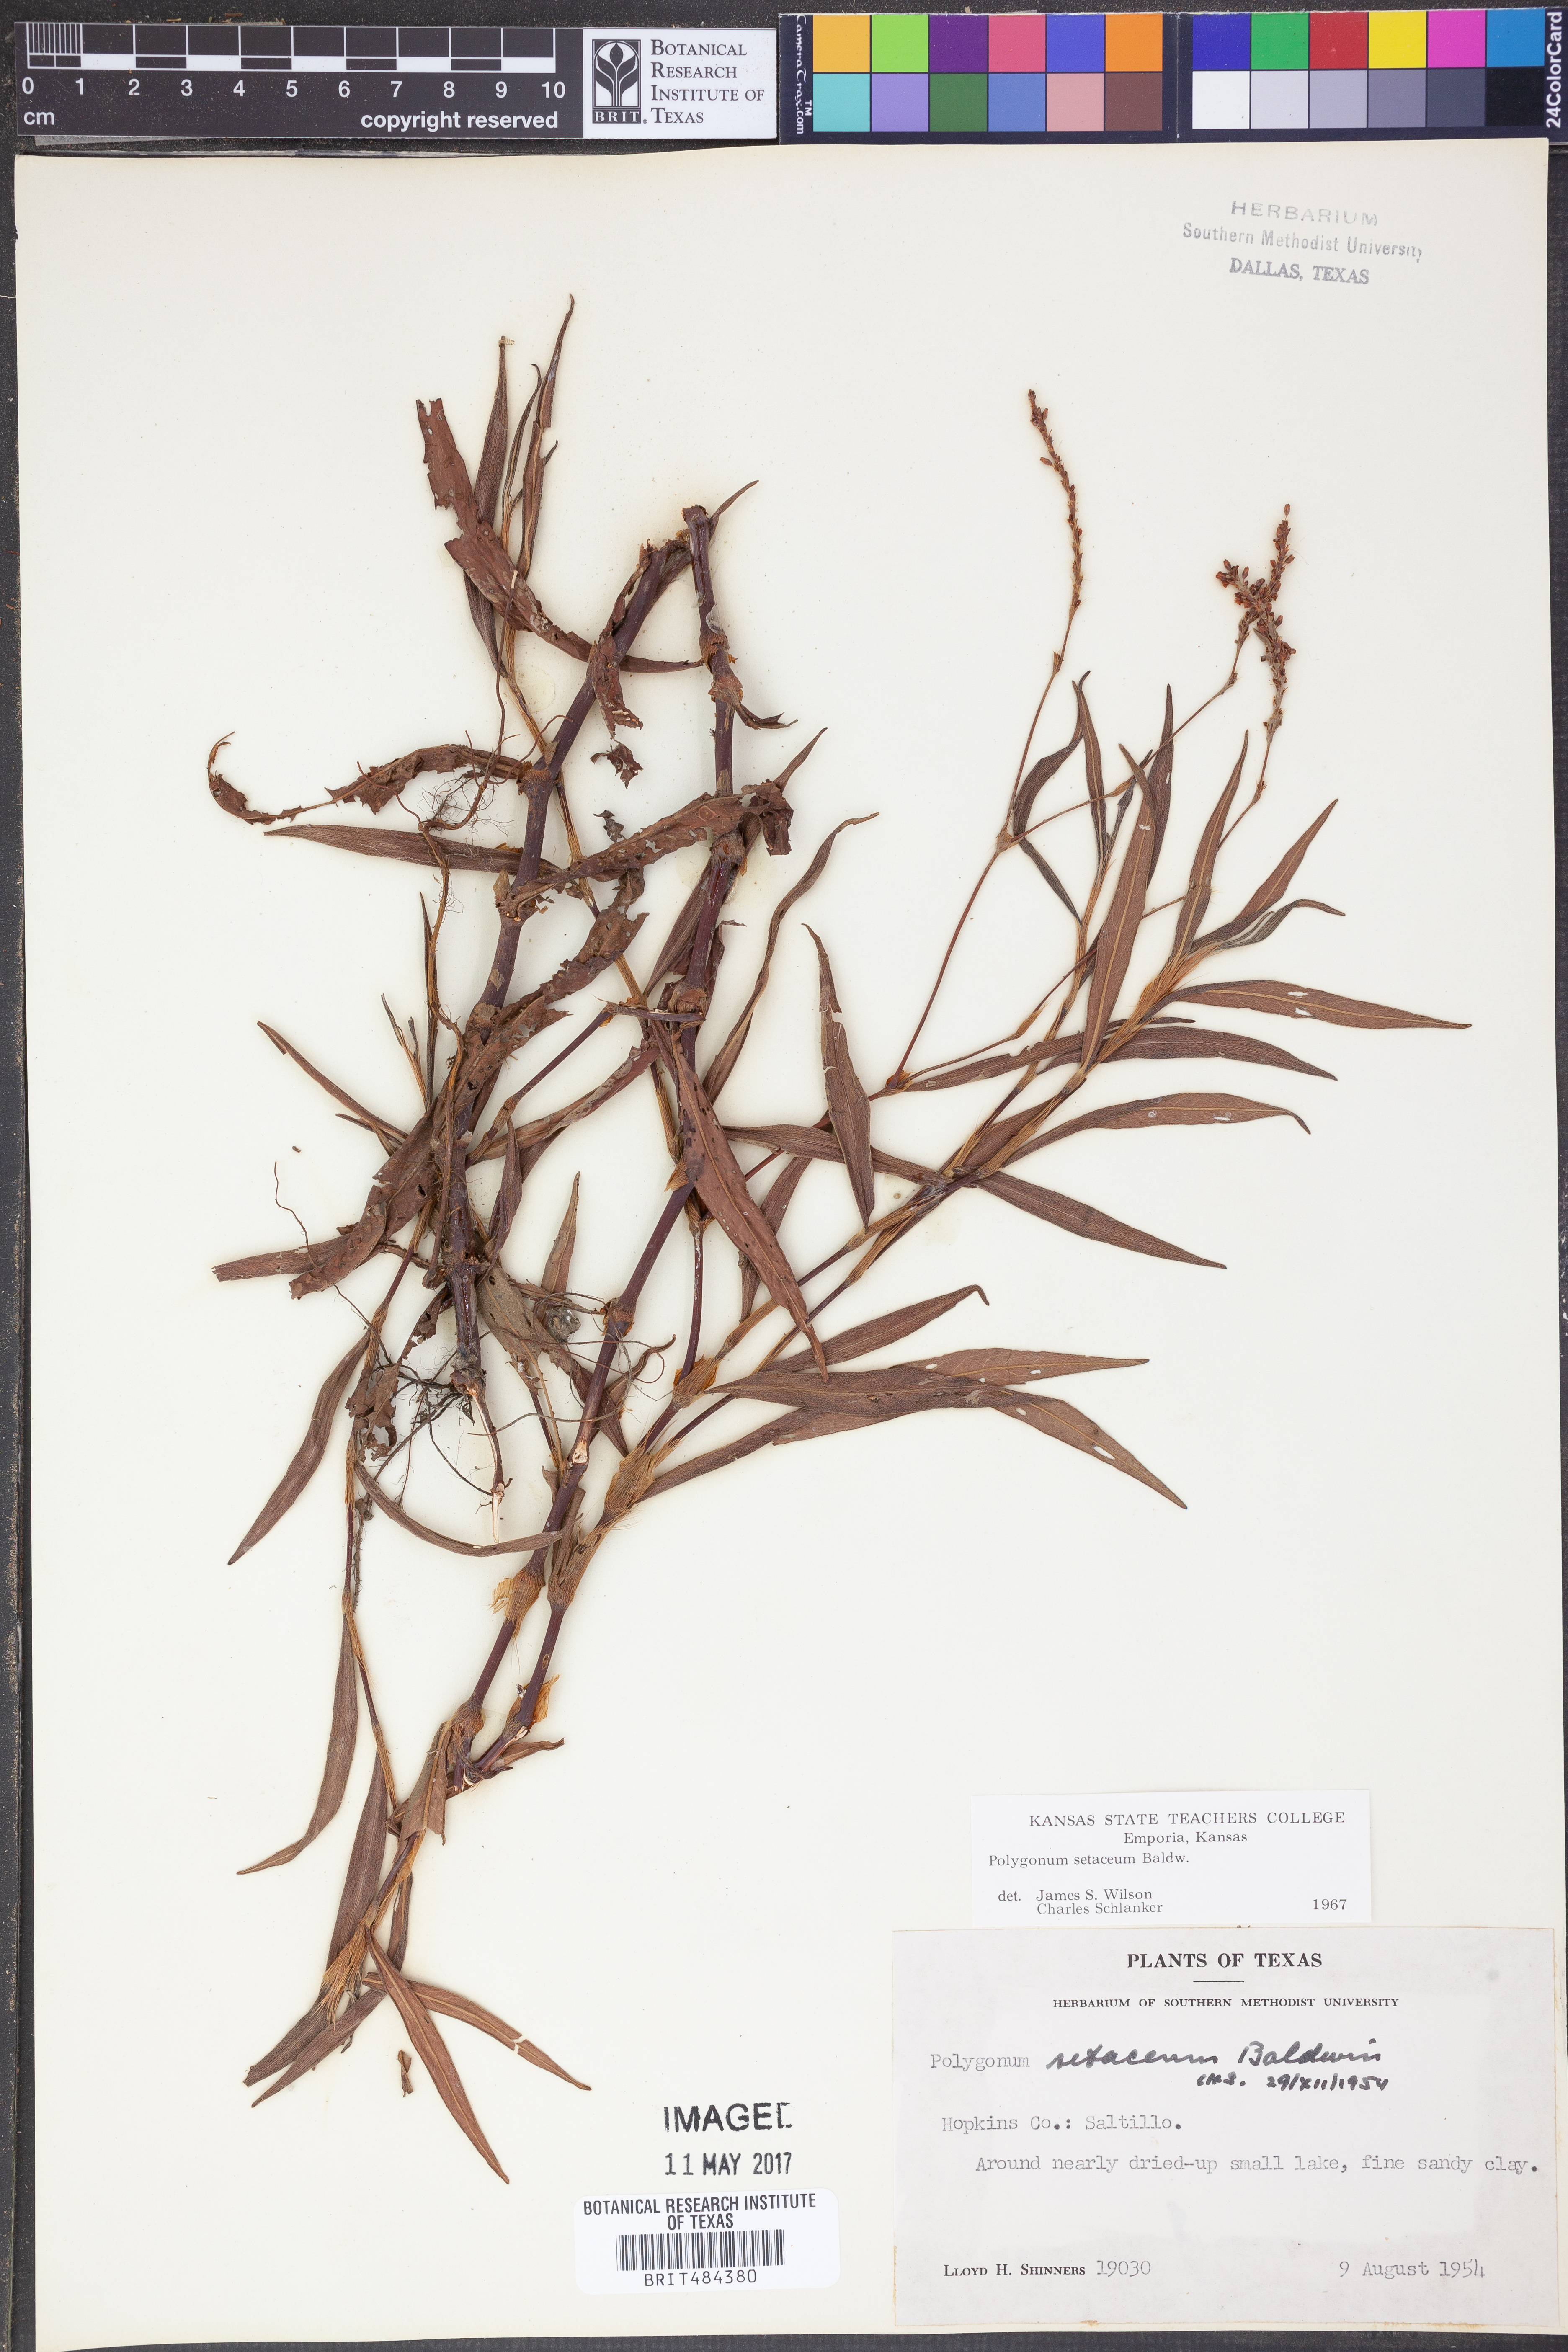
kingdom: Plantae
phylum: Tracheophyta
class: Magnoliopsida
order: Caryophyllales
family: Polygonaceae
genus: Persicaria
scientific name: Persicaria setacea
